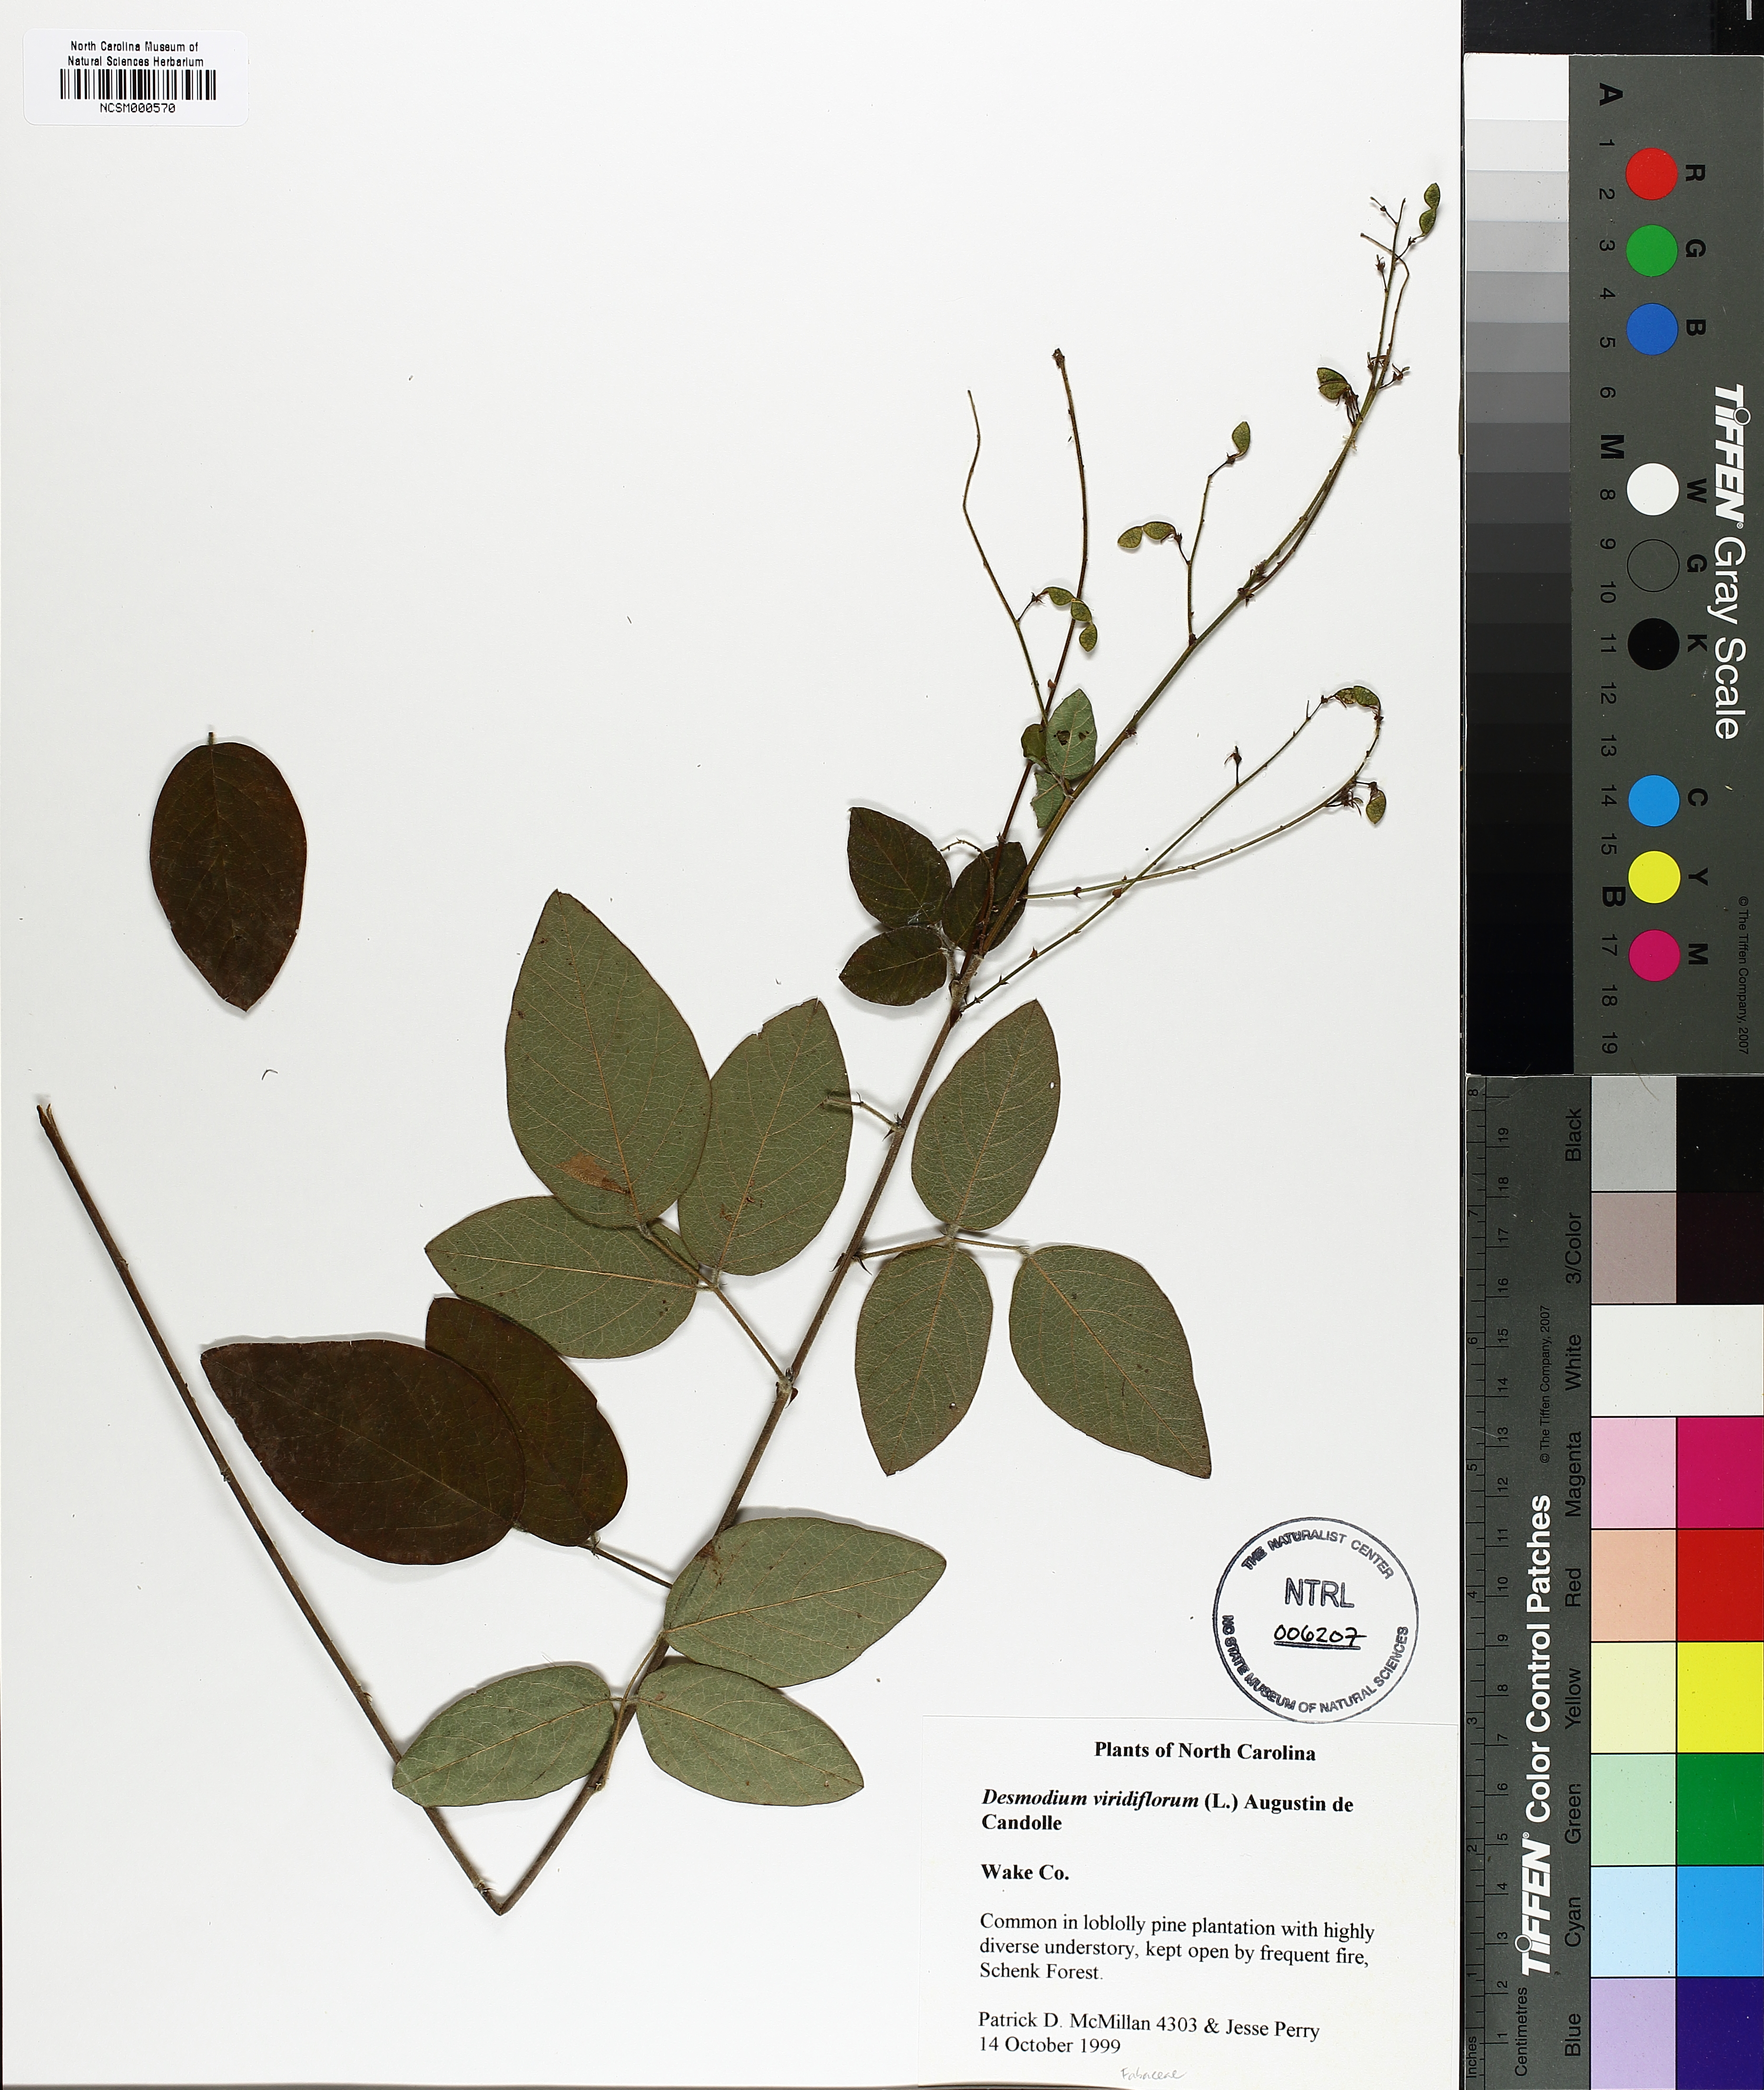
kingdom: Plantae
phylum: Tracheophyta
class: Magnoliopsida
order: Fabales
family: Fabaceae
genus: Desmodium
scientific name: Desmodium viridiflorum
